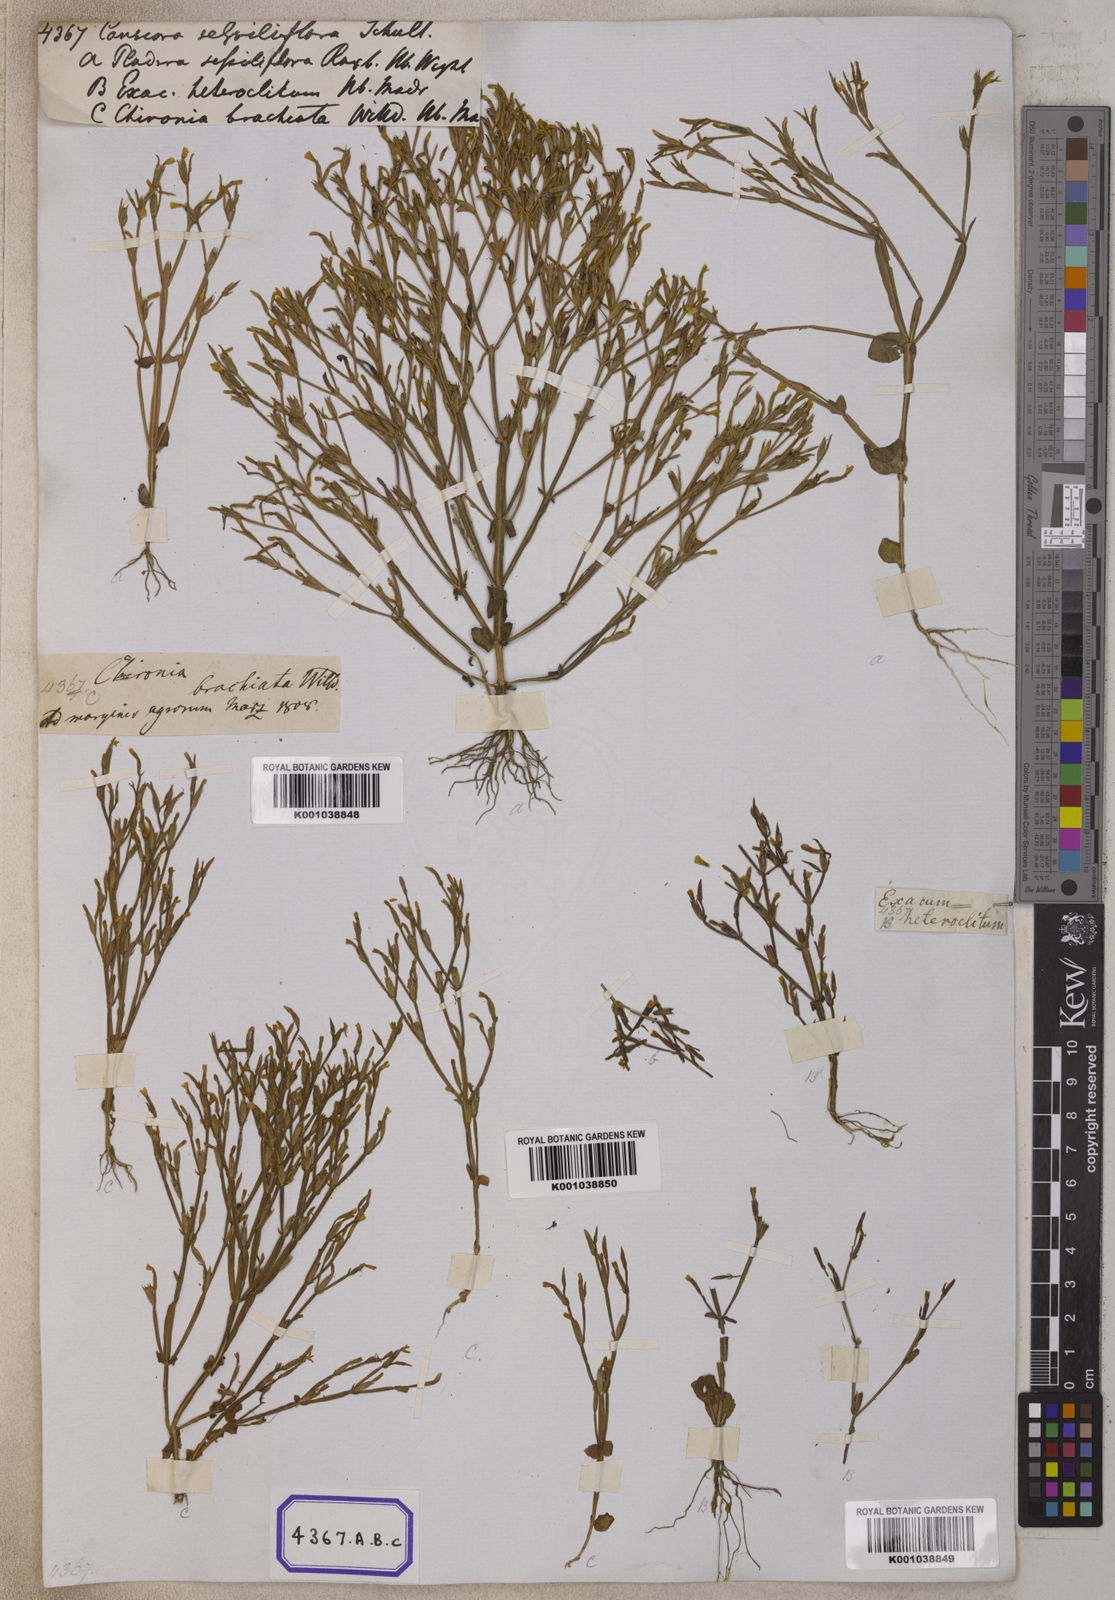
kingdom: Plantae
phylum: Tracheophyta
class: Magnoliopsida
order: Gentianales
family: Gentianaceae
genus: Canscora
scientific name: Canscora
